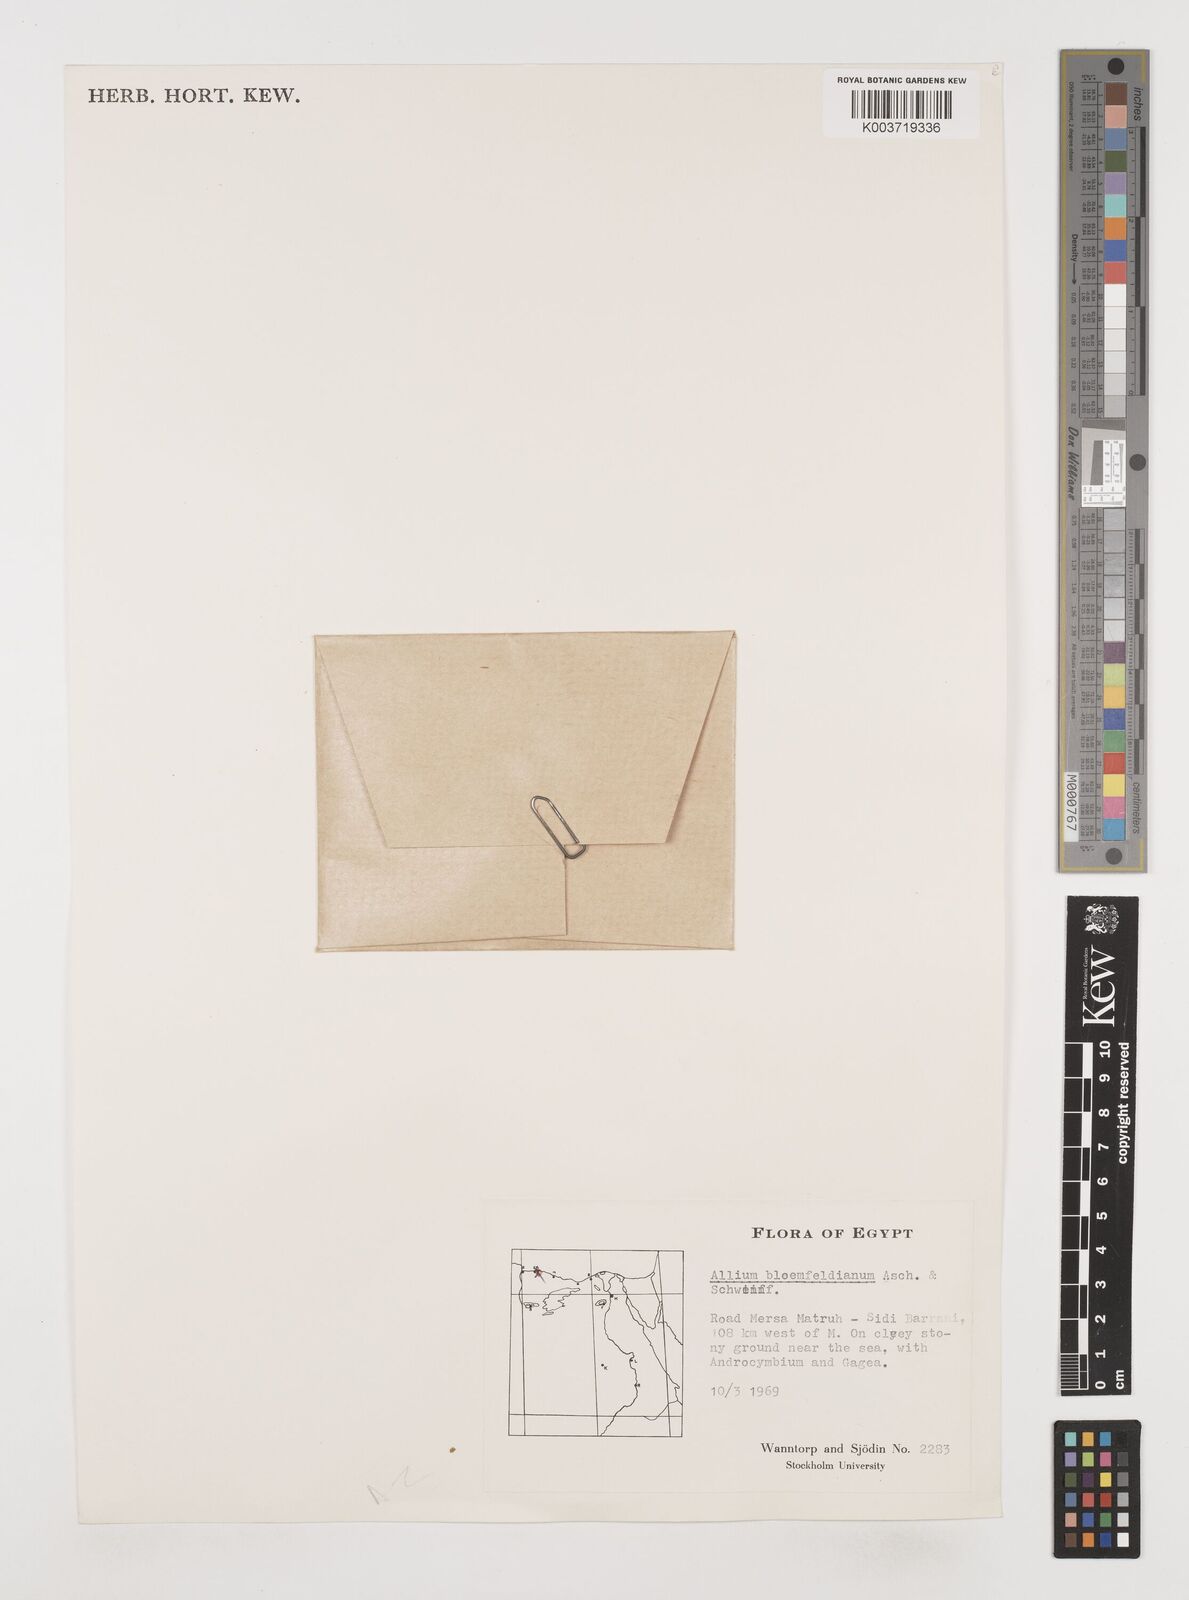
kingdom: Plantae
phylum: Tracheophyta
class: Liliopsida
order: Asparagales
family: Amaryllidaceae
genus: Allium
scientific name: Allium blomfieldianum
